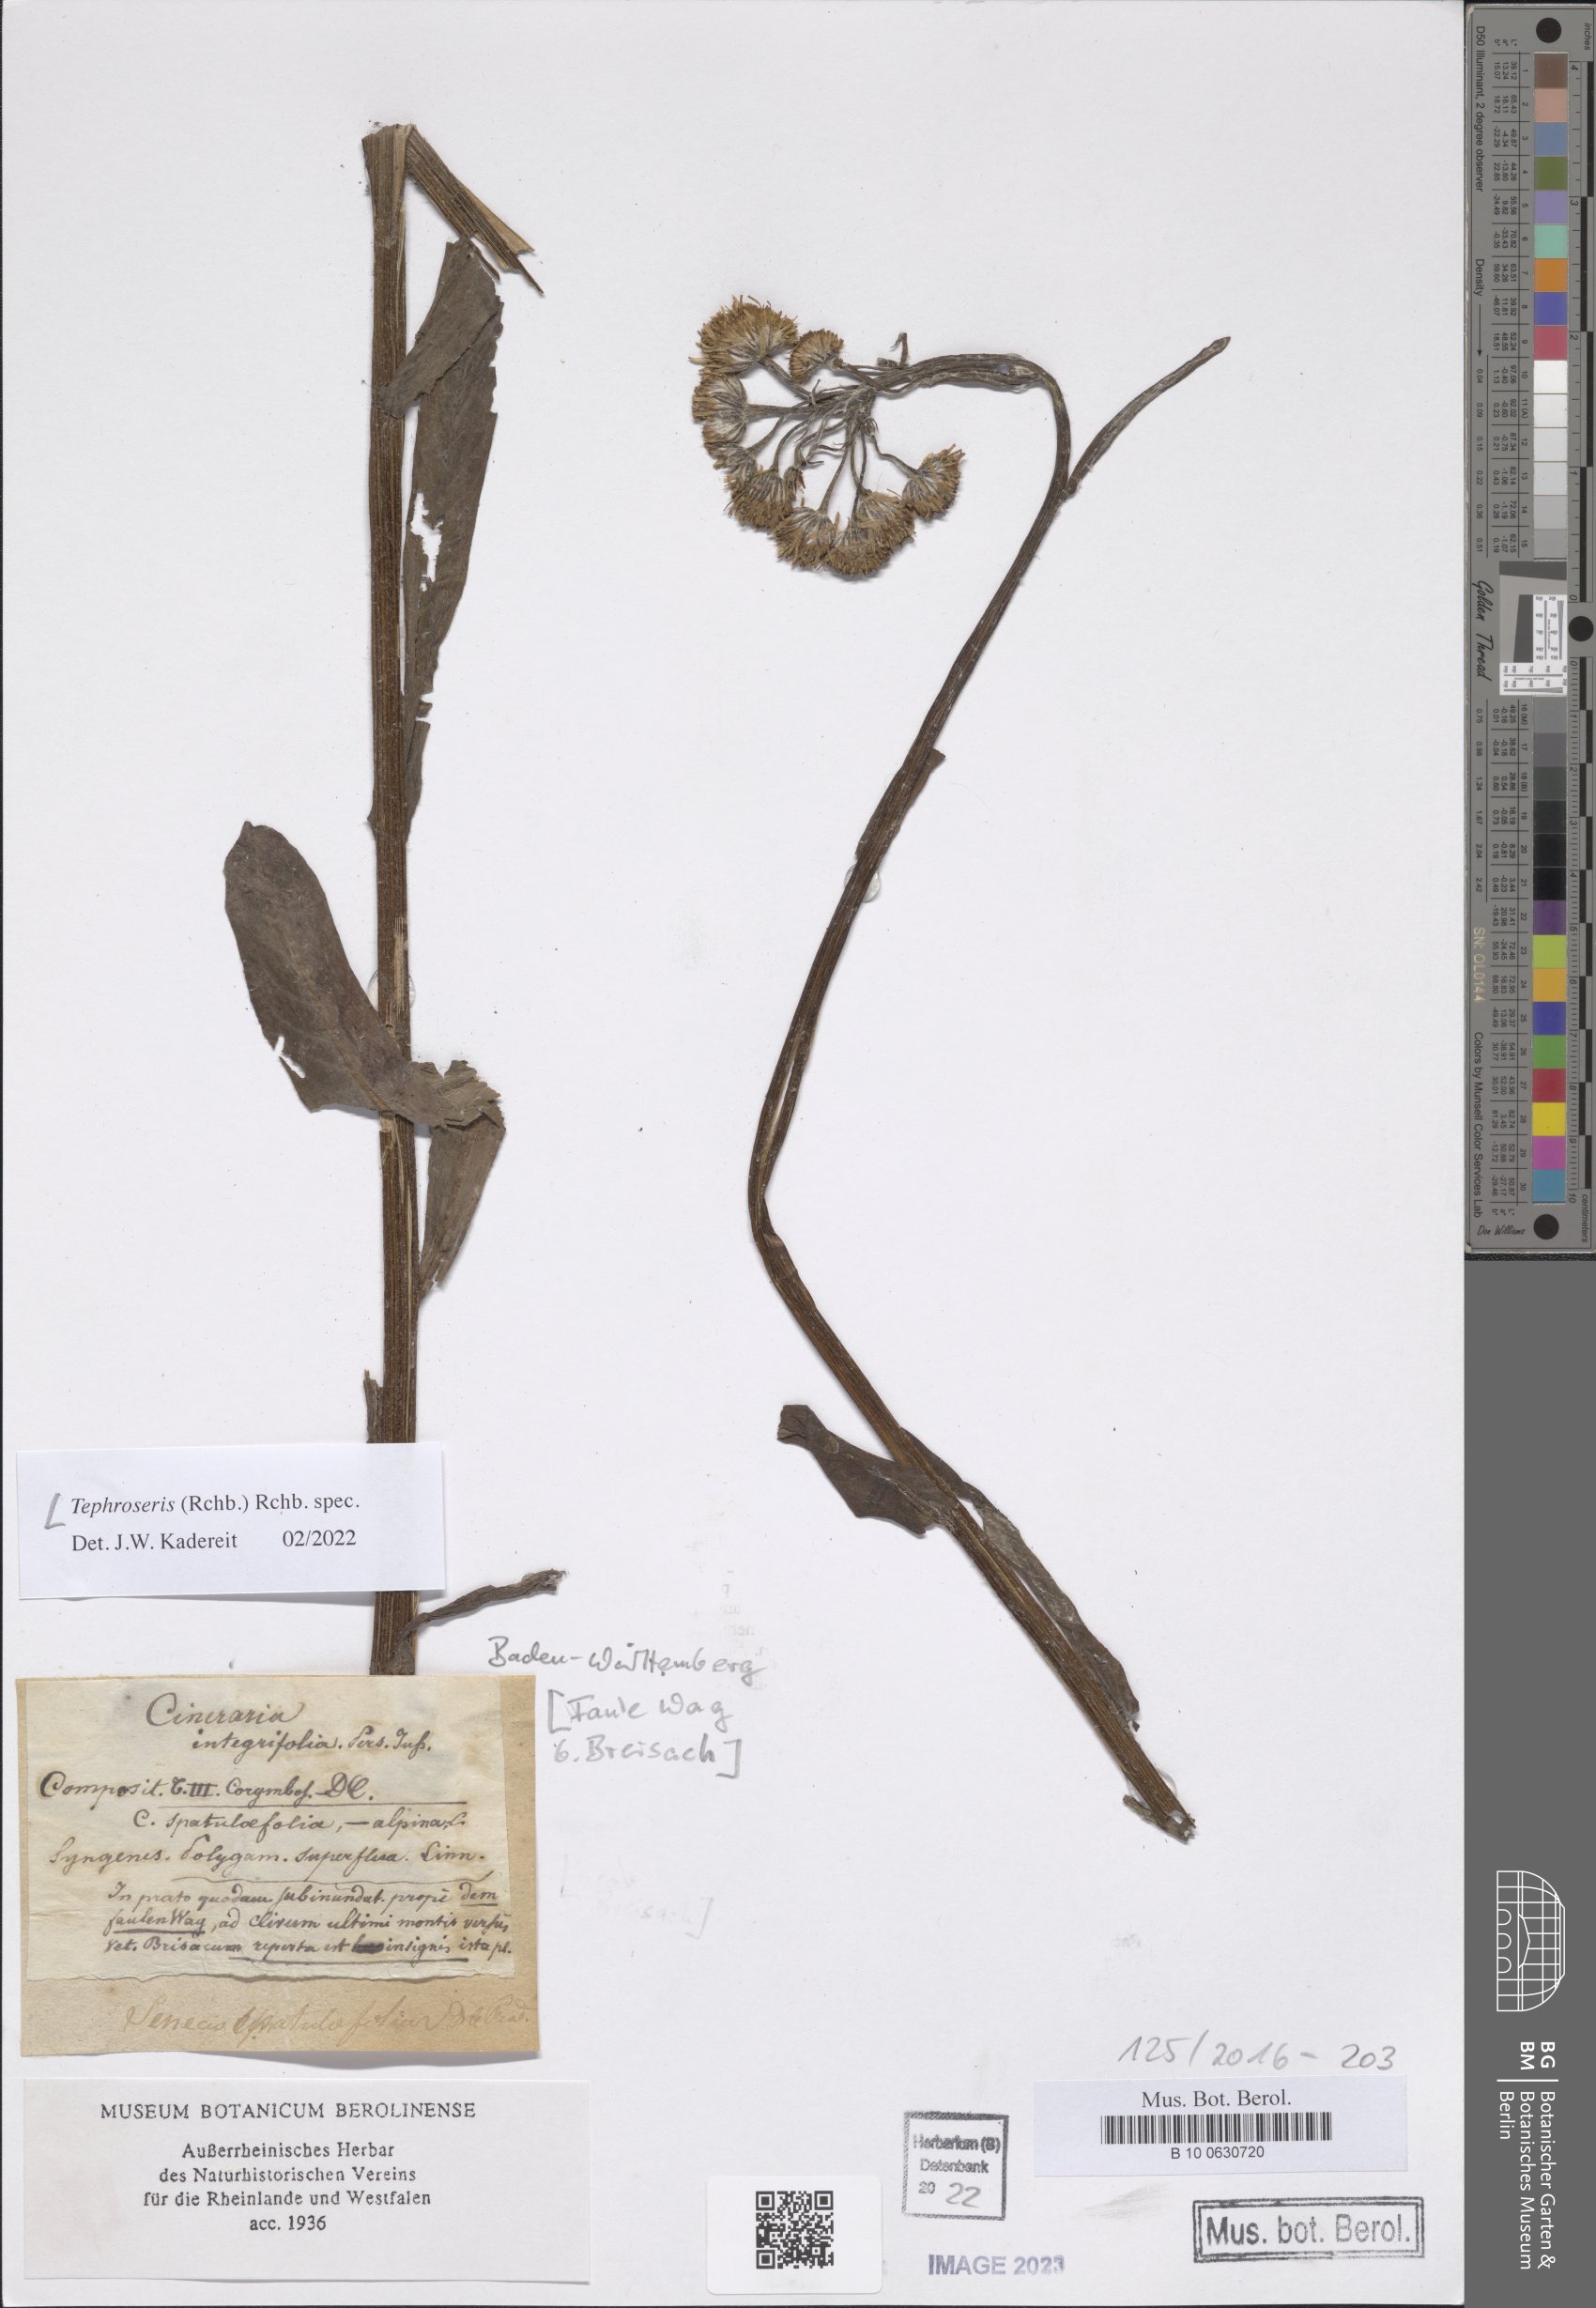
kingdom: Plantae
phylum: Tracheophyta
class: Magnoliopsida
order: Asterales
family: Asteraceae
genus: Tephroseris
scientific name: Tephroseris
